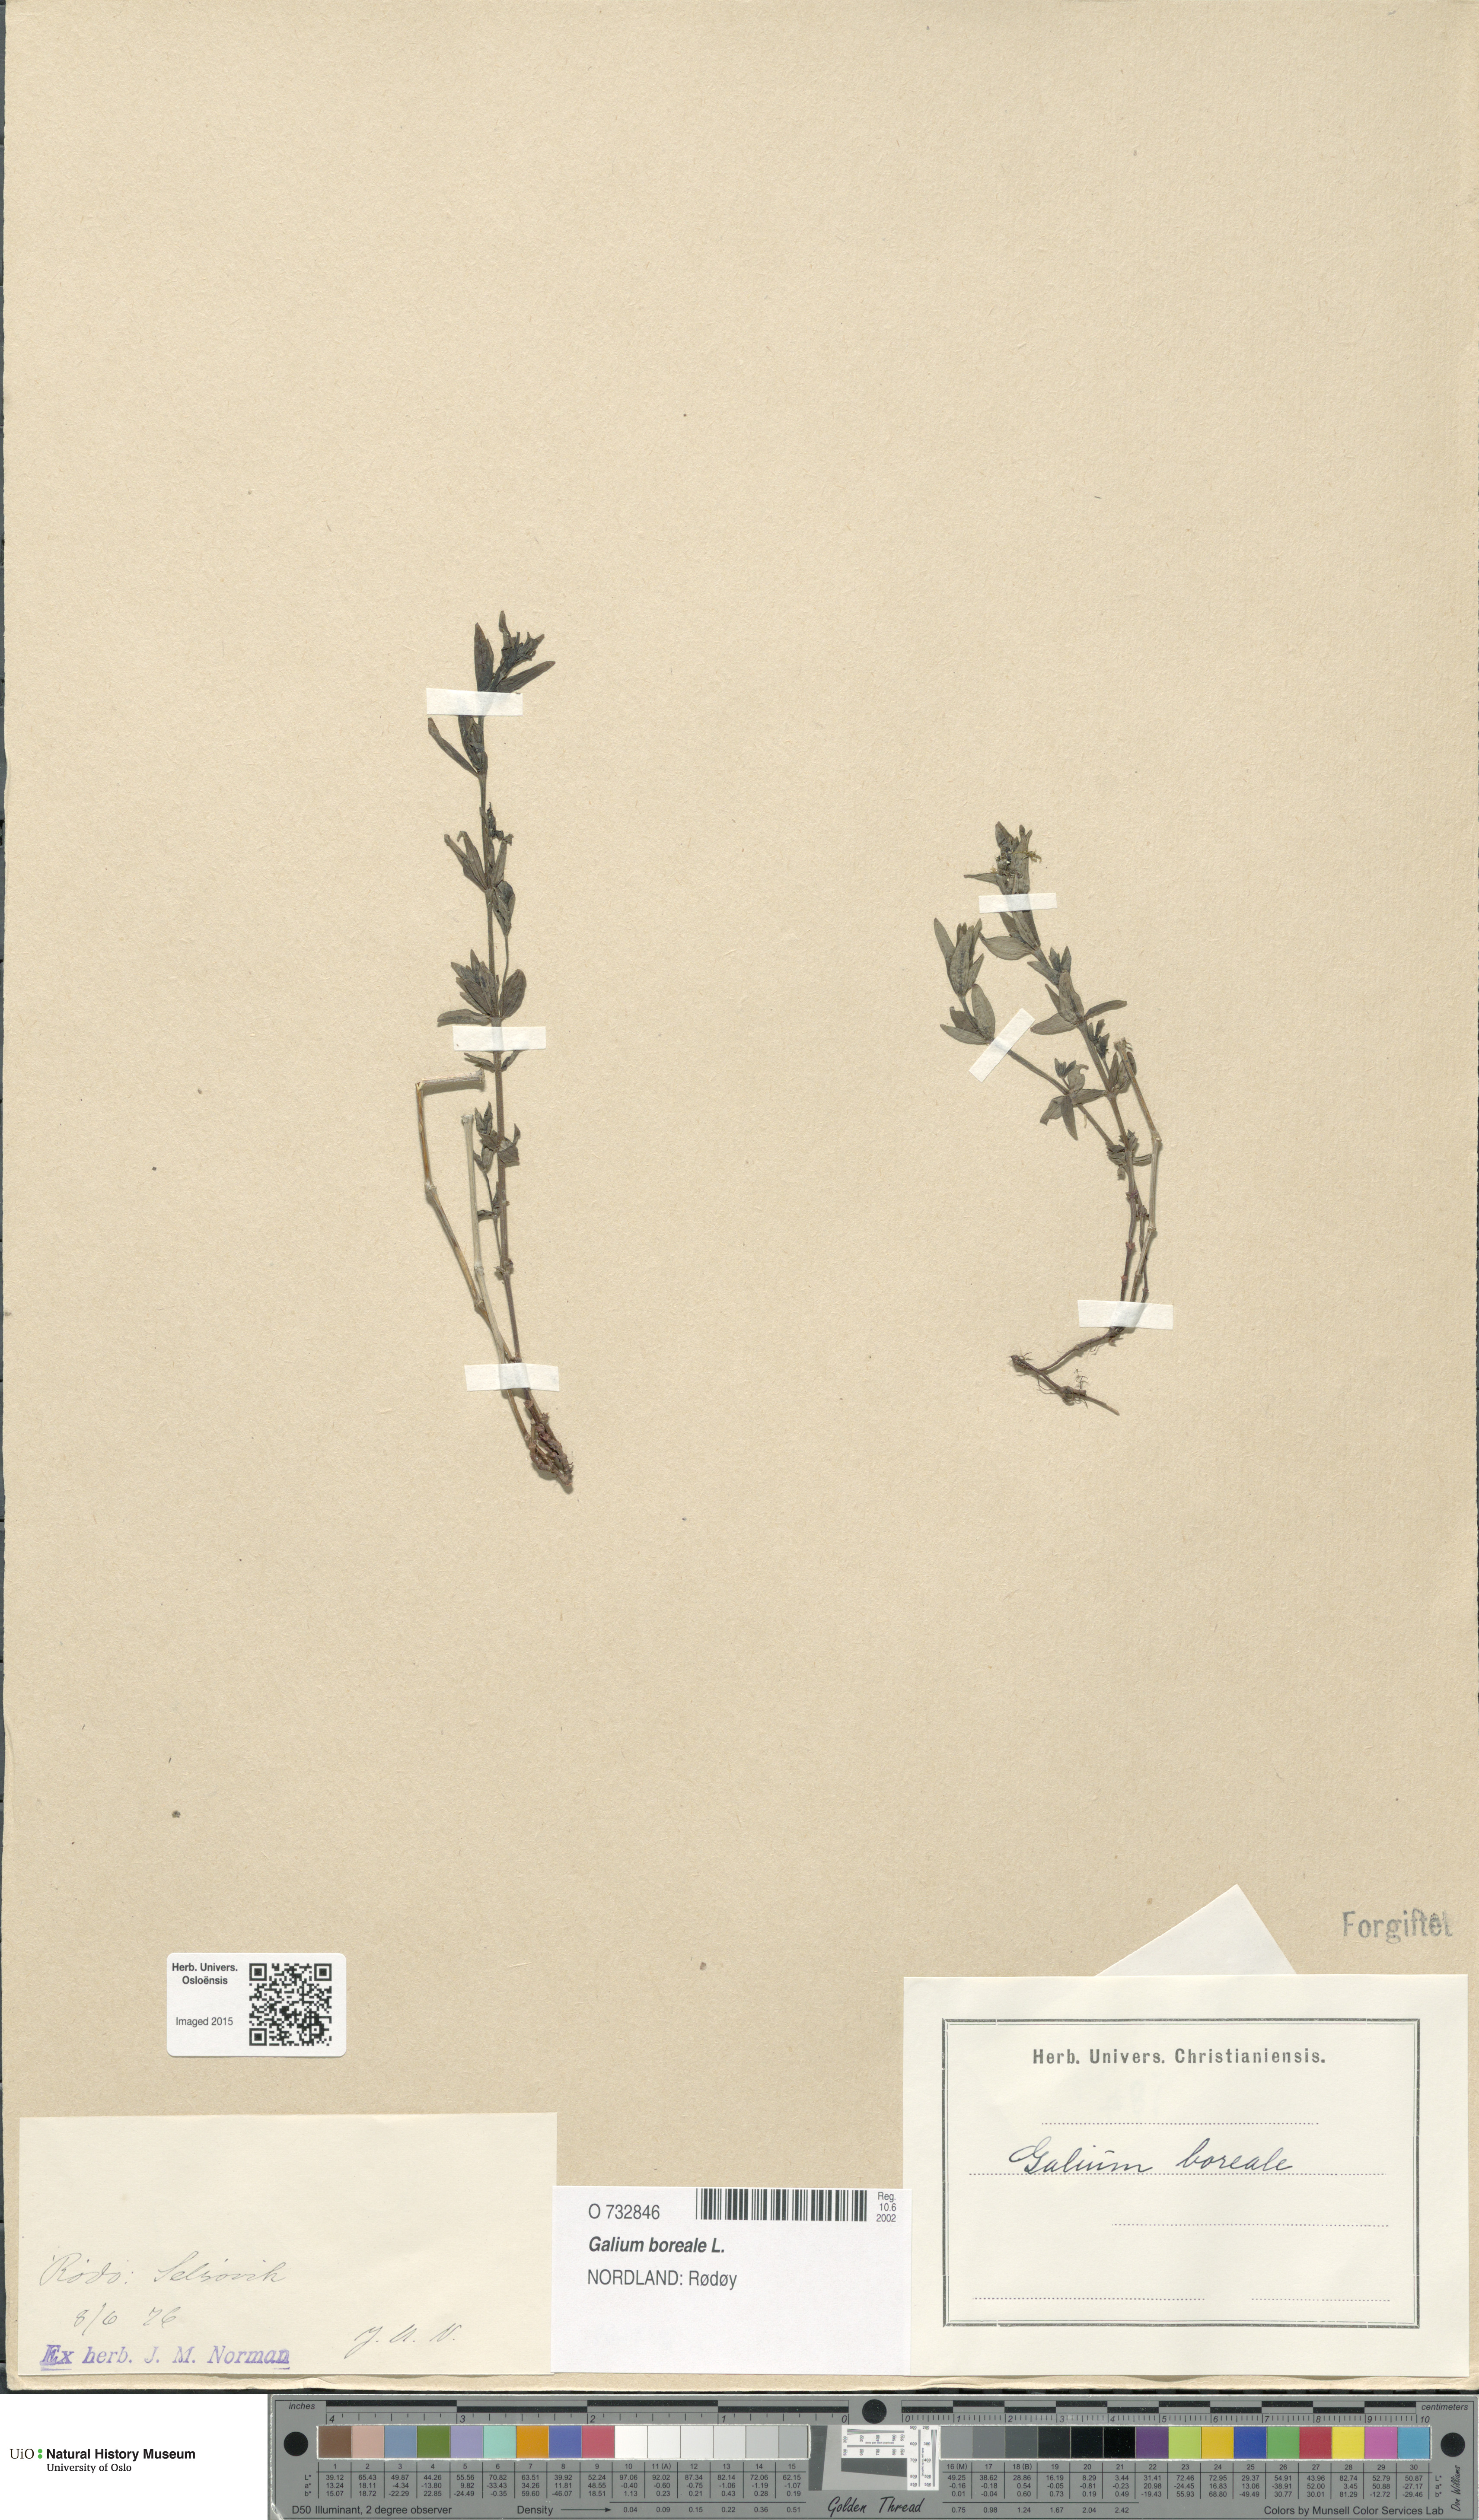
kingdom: Plantae
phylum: Tracheophyta
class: Magnoliopsida
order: Gentianales
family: Rubiaceae
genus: Galium
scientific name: Galium boreale
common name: Northern bedstraw
